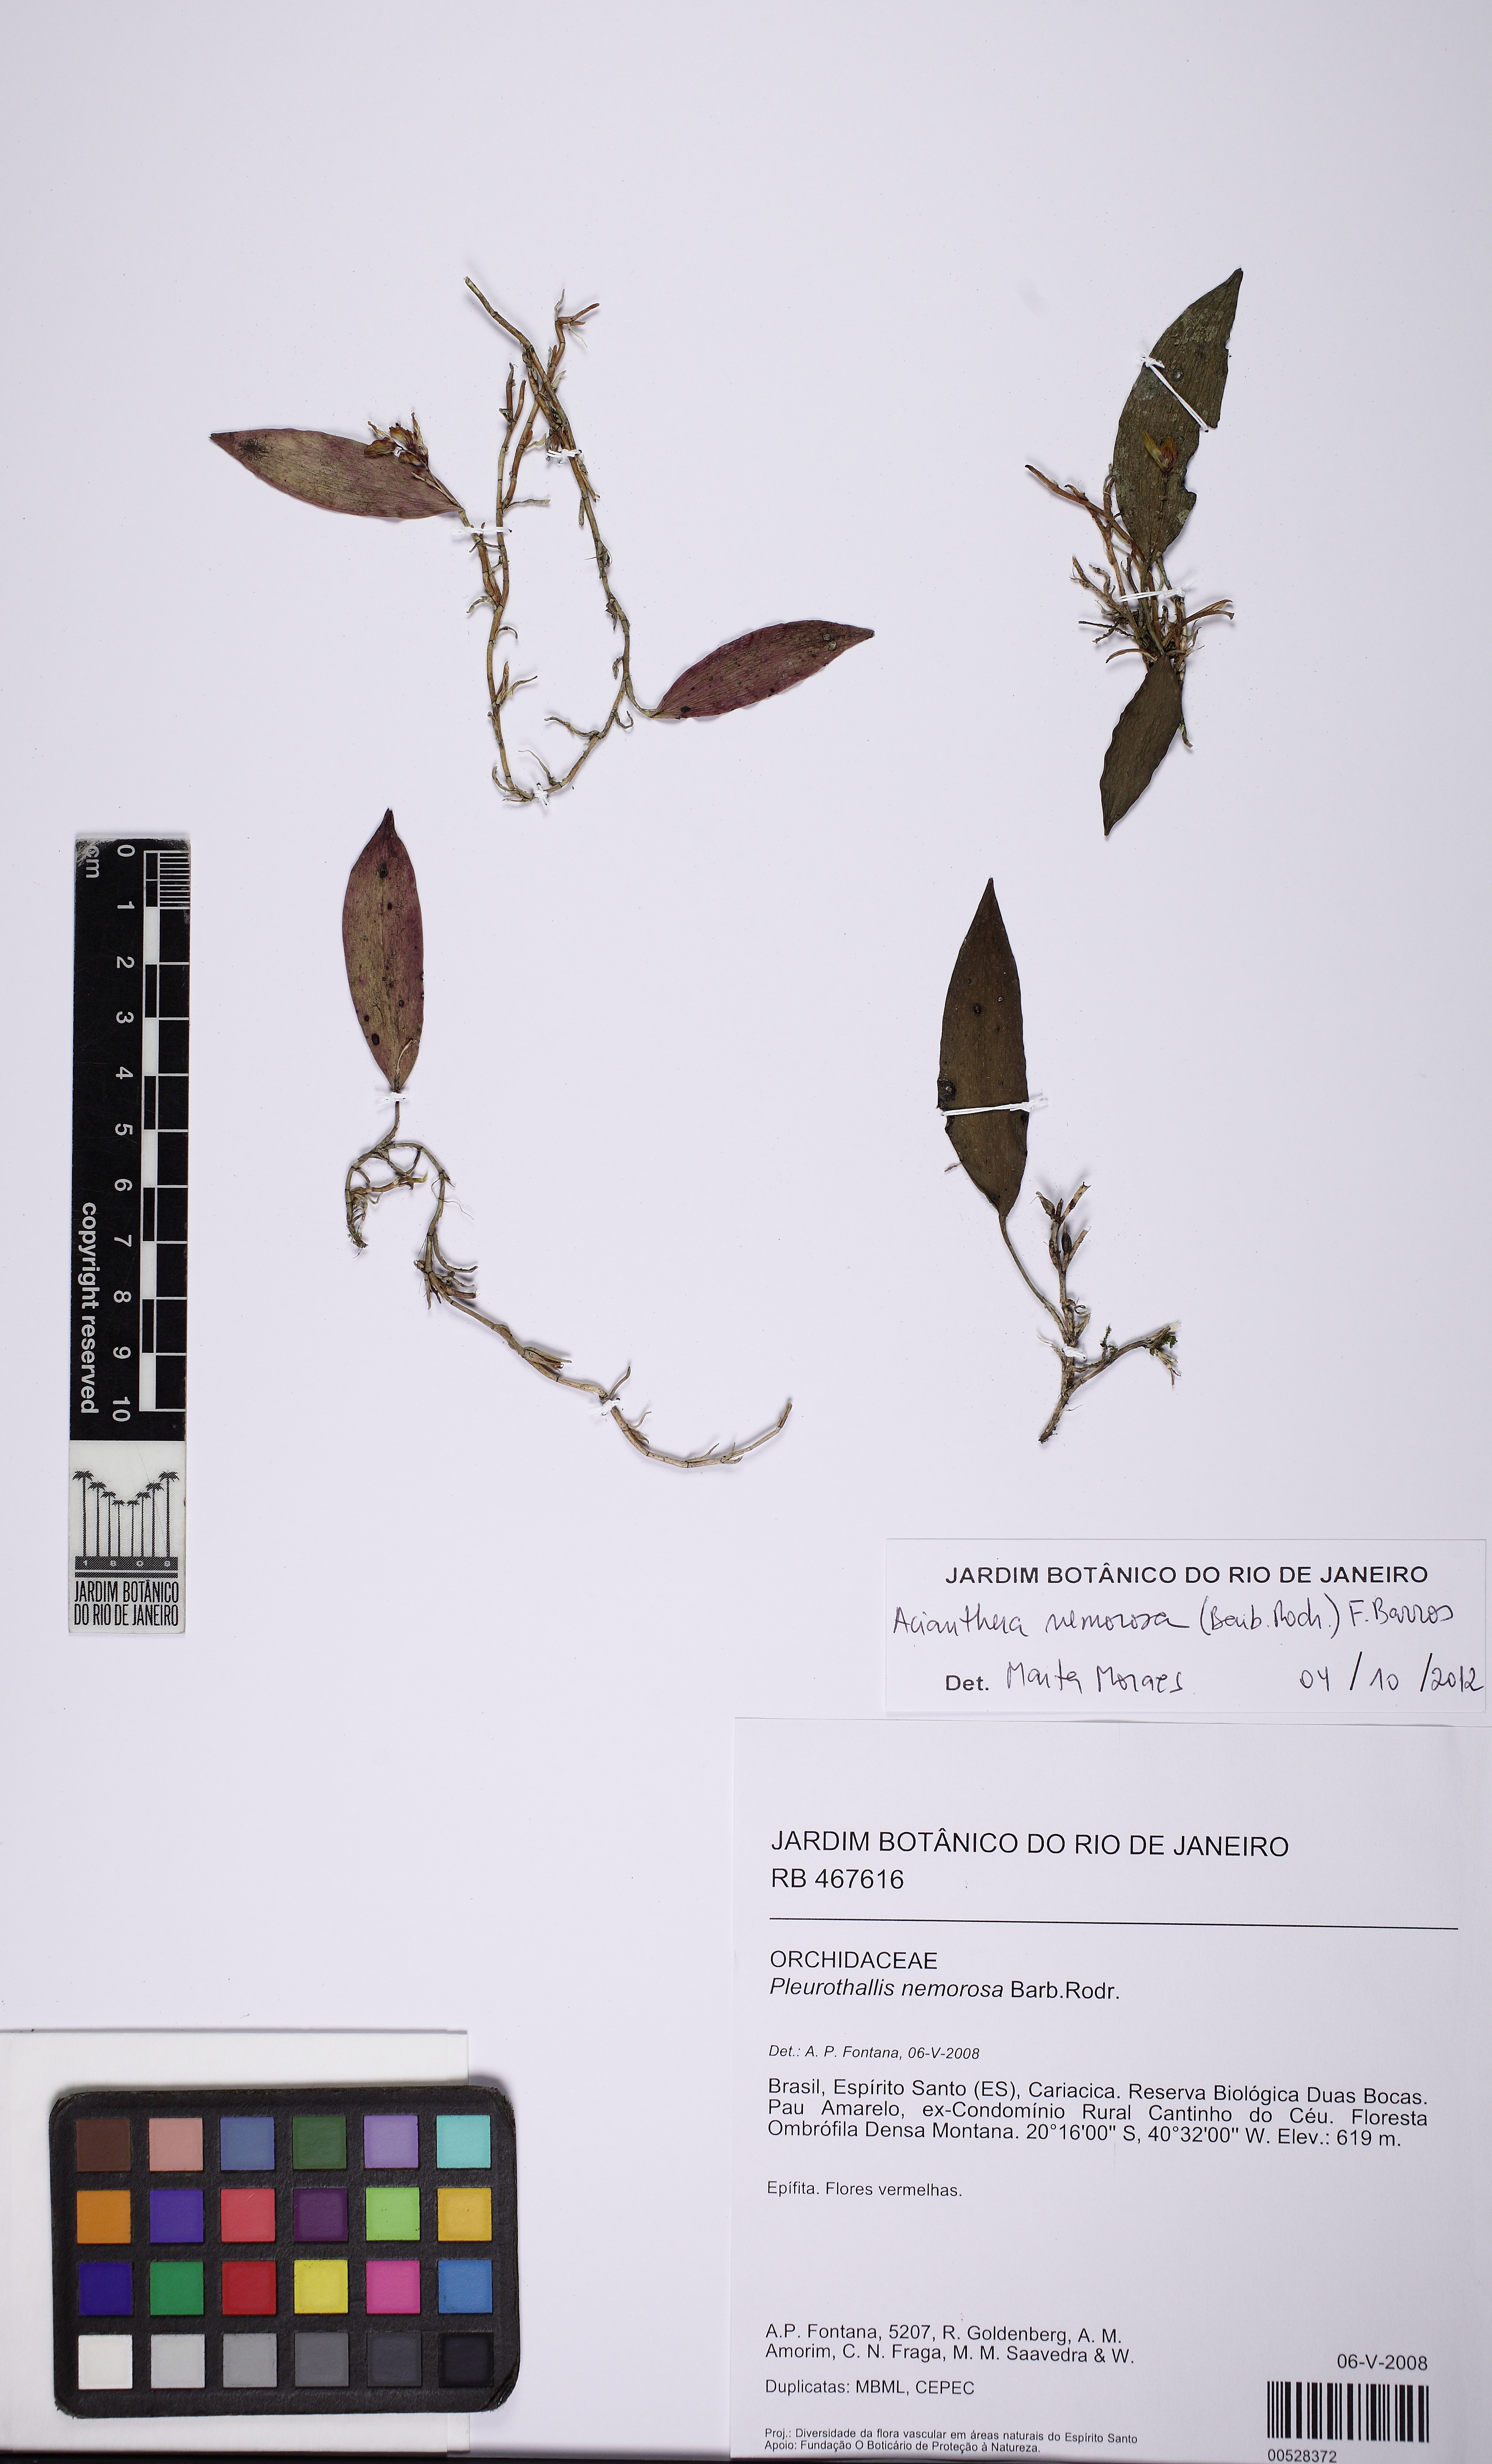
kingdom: Plantae
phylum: Tracheophyta
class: Liliopsida
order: Asparagales
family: Orchidaceae
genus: Acianthera
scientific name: Acianthera nemorosa
